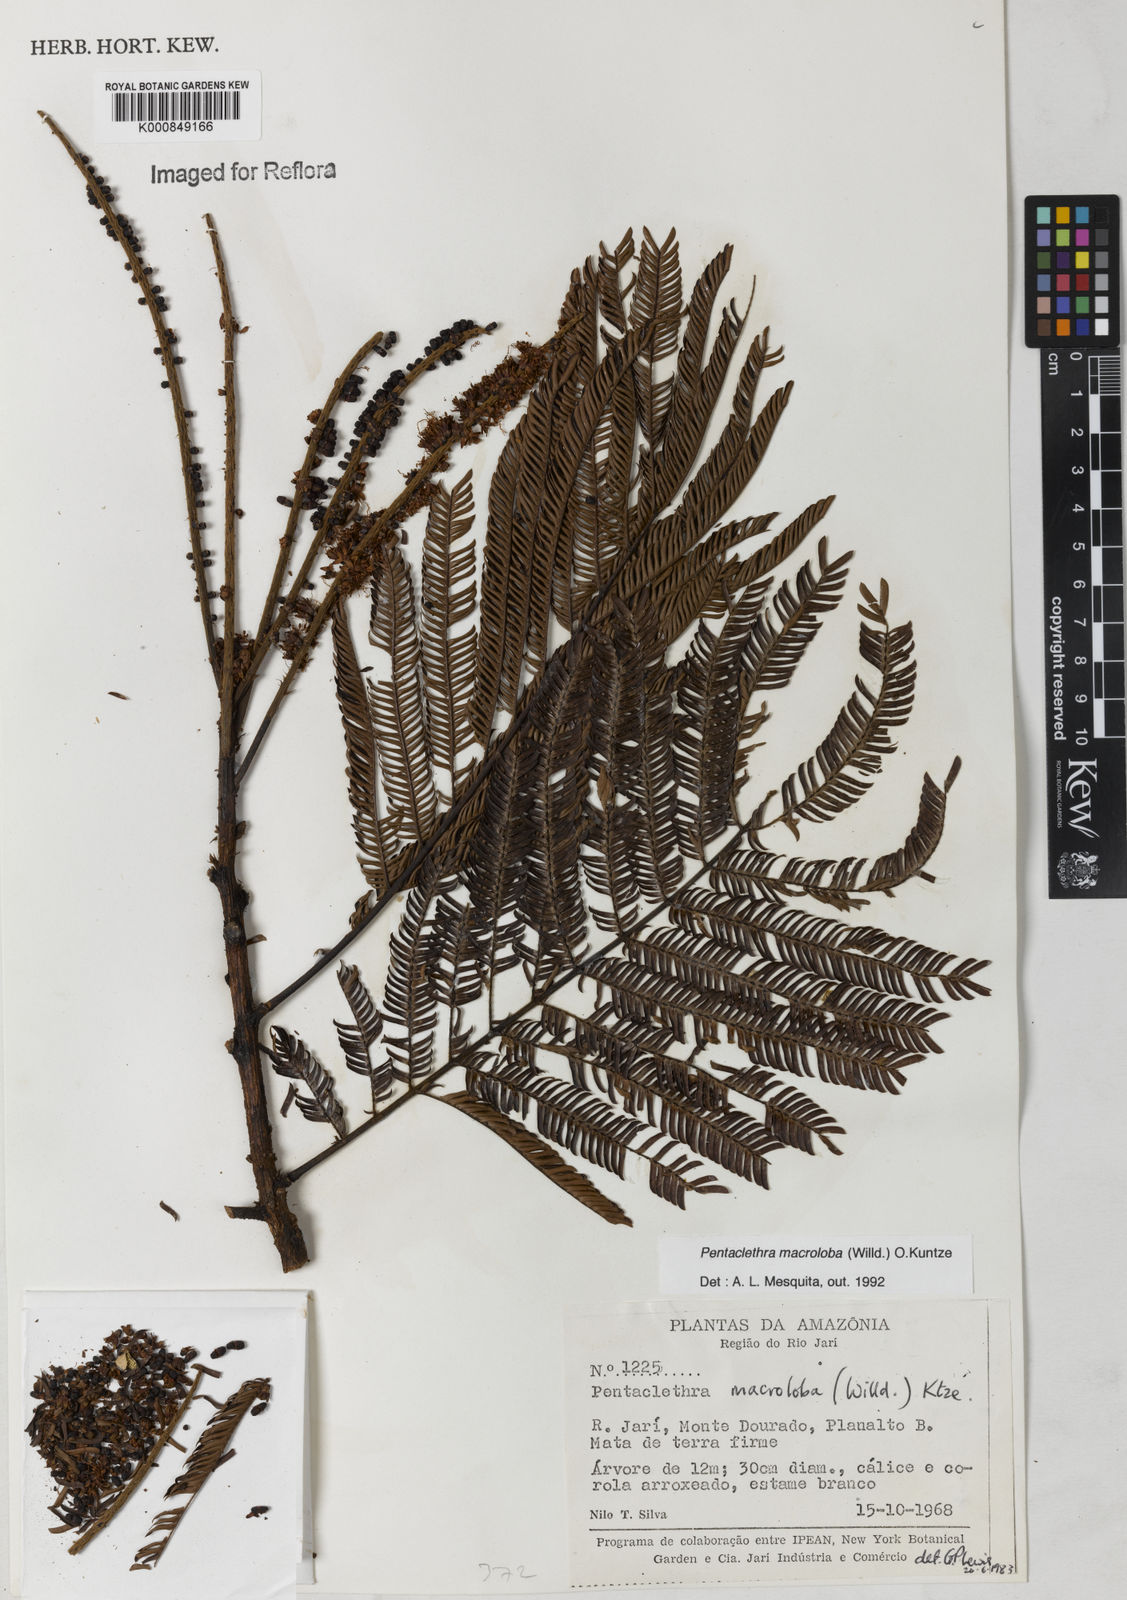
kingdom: Plantae
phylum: Tracheophyta
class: Magnoliopsida
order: Fabales
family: Fabaceae
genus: Pentaclethra
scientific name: Pentaclethra macroloba
